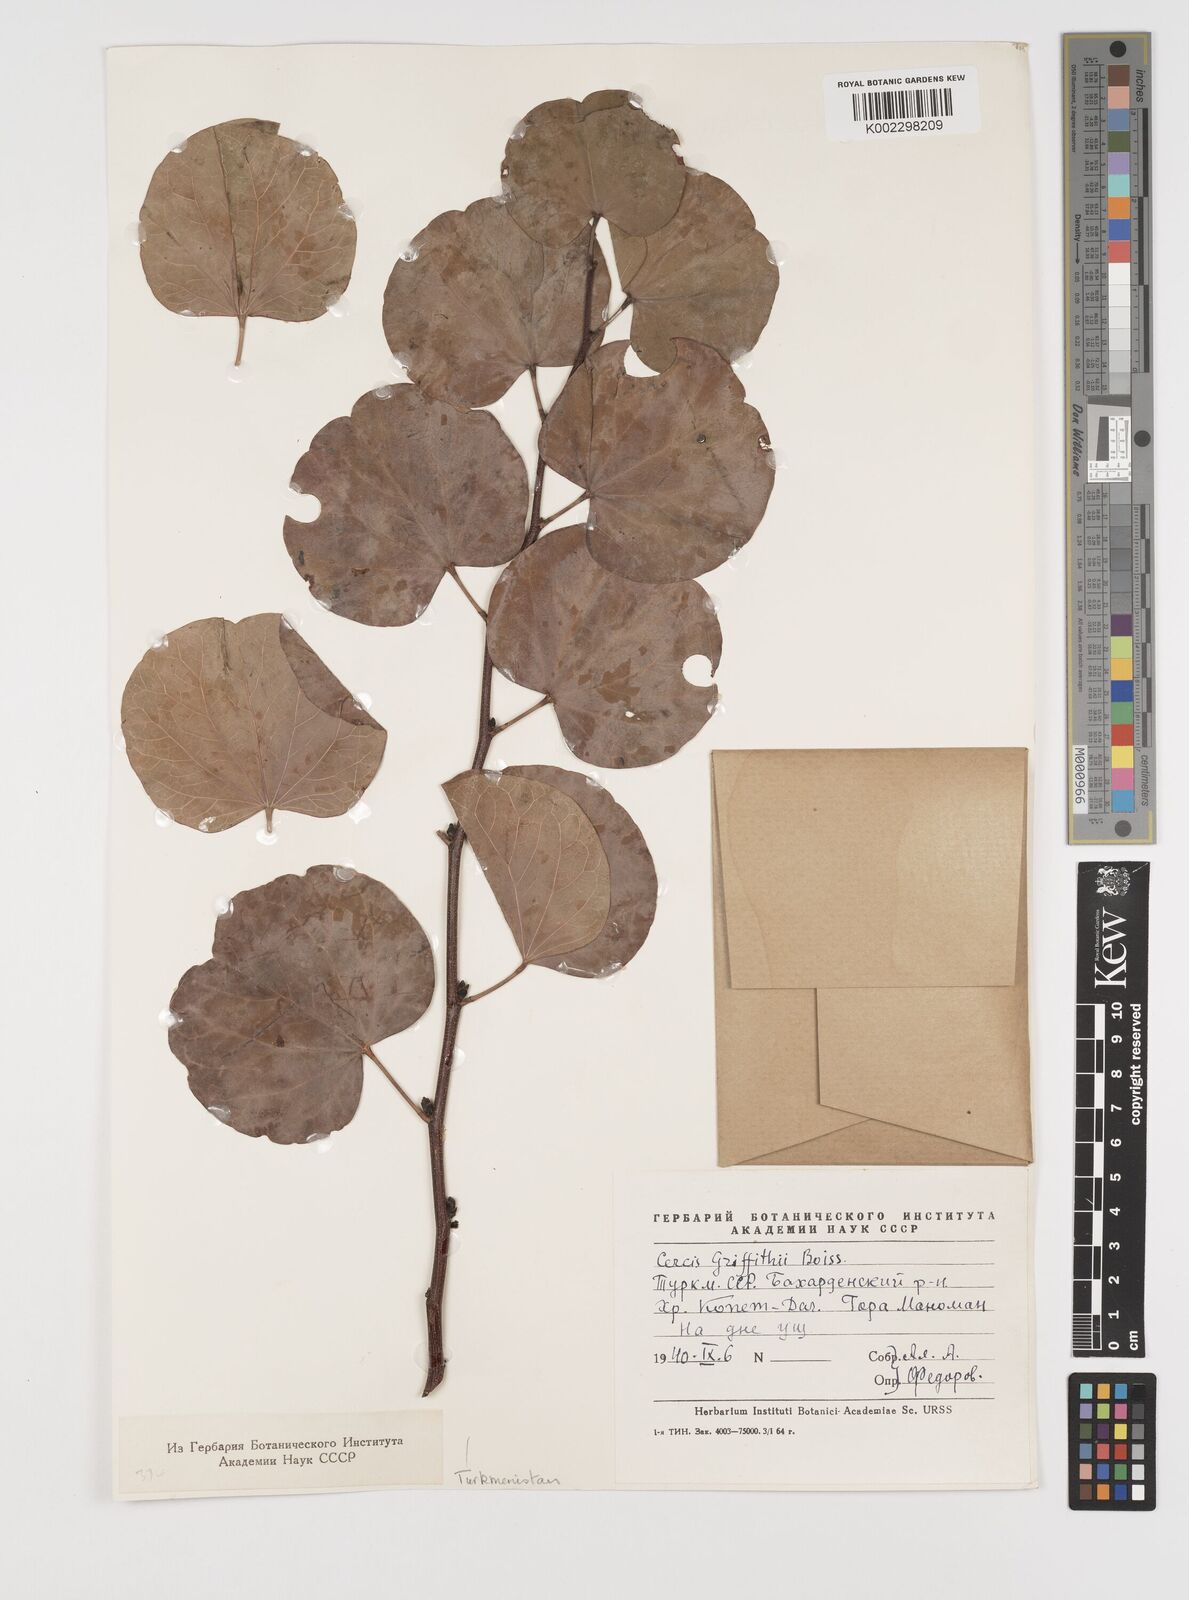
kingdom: Plantae
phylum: Tracheophyta
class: Magnoliopsida
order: Fabales
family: Fabaceae
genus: Cercis
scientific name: Cercis griffithii
